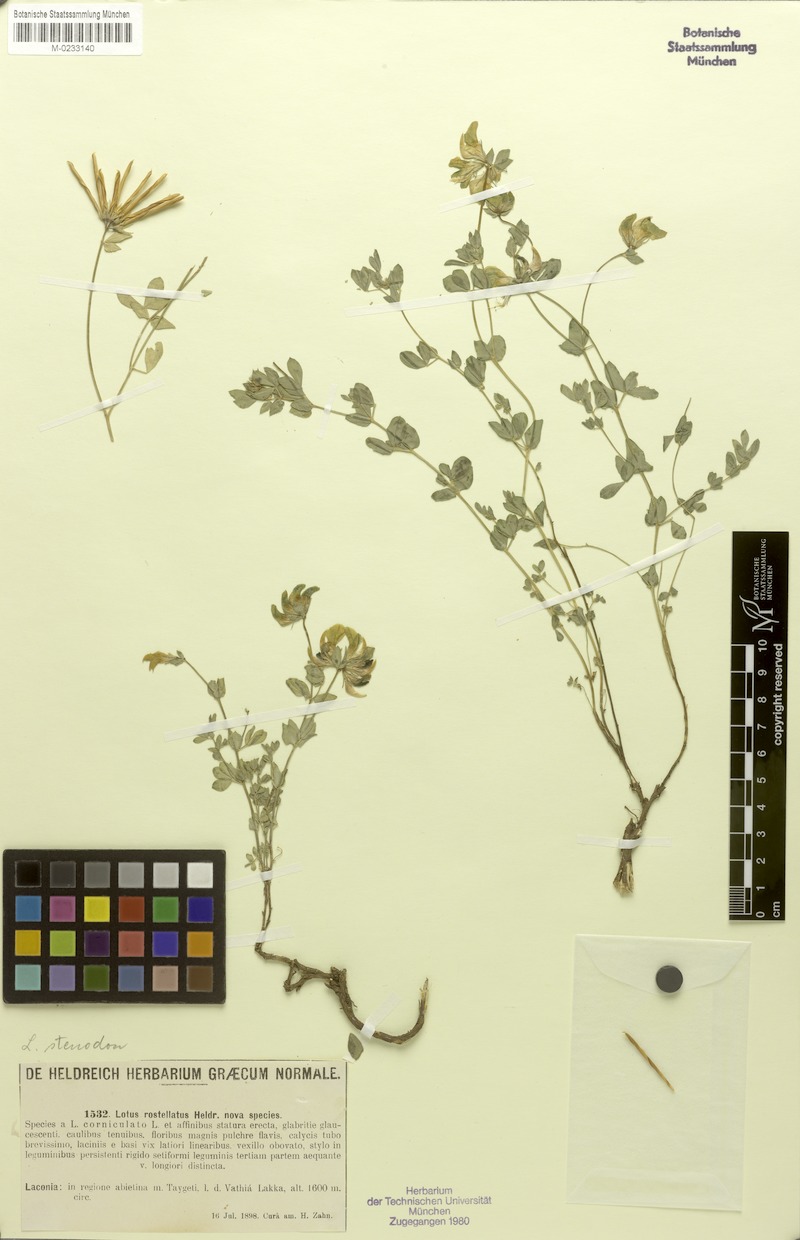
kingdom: Plantae
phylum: Tracheophyta
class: Magnoliopsida
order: Fabales
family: Fabaceae
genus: Lotus
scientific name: Lotus corniculatus
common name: Common bird's-foot-trefoil
